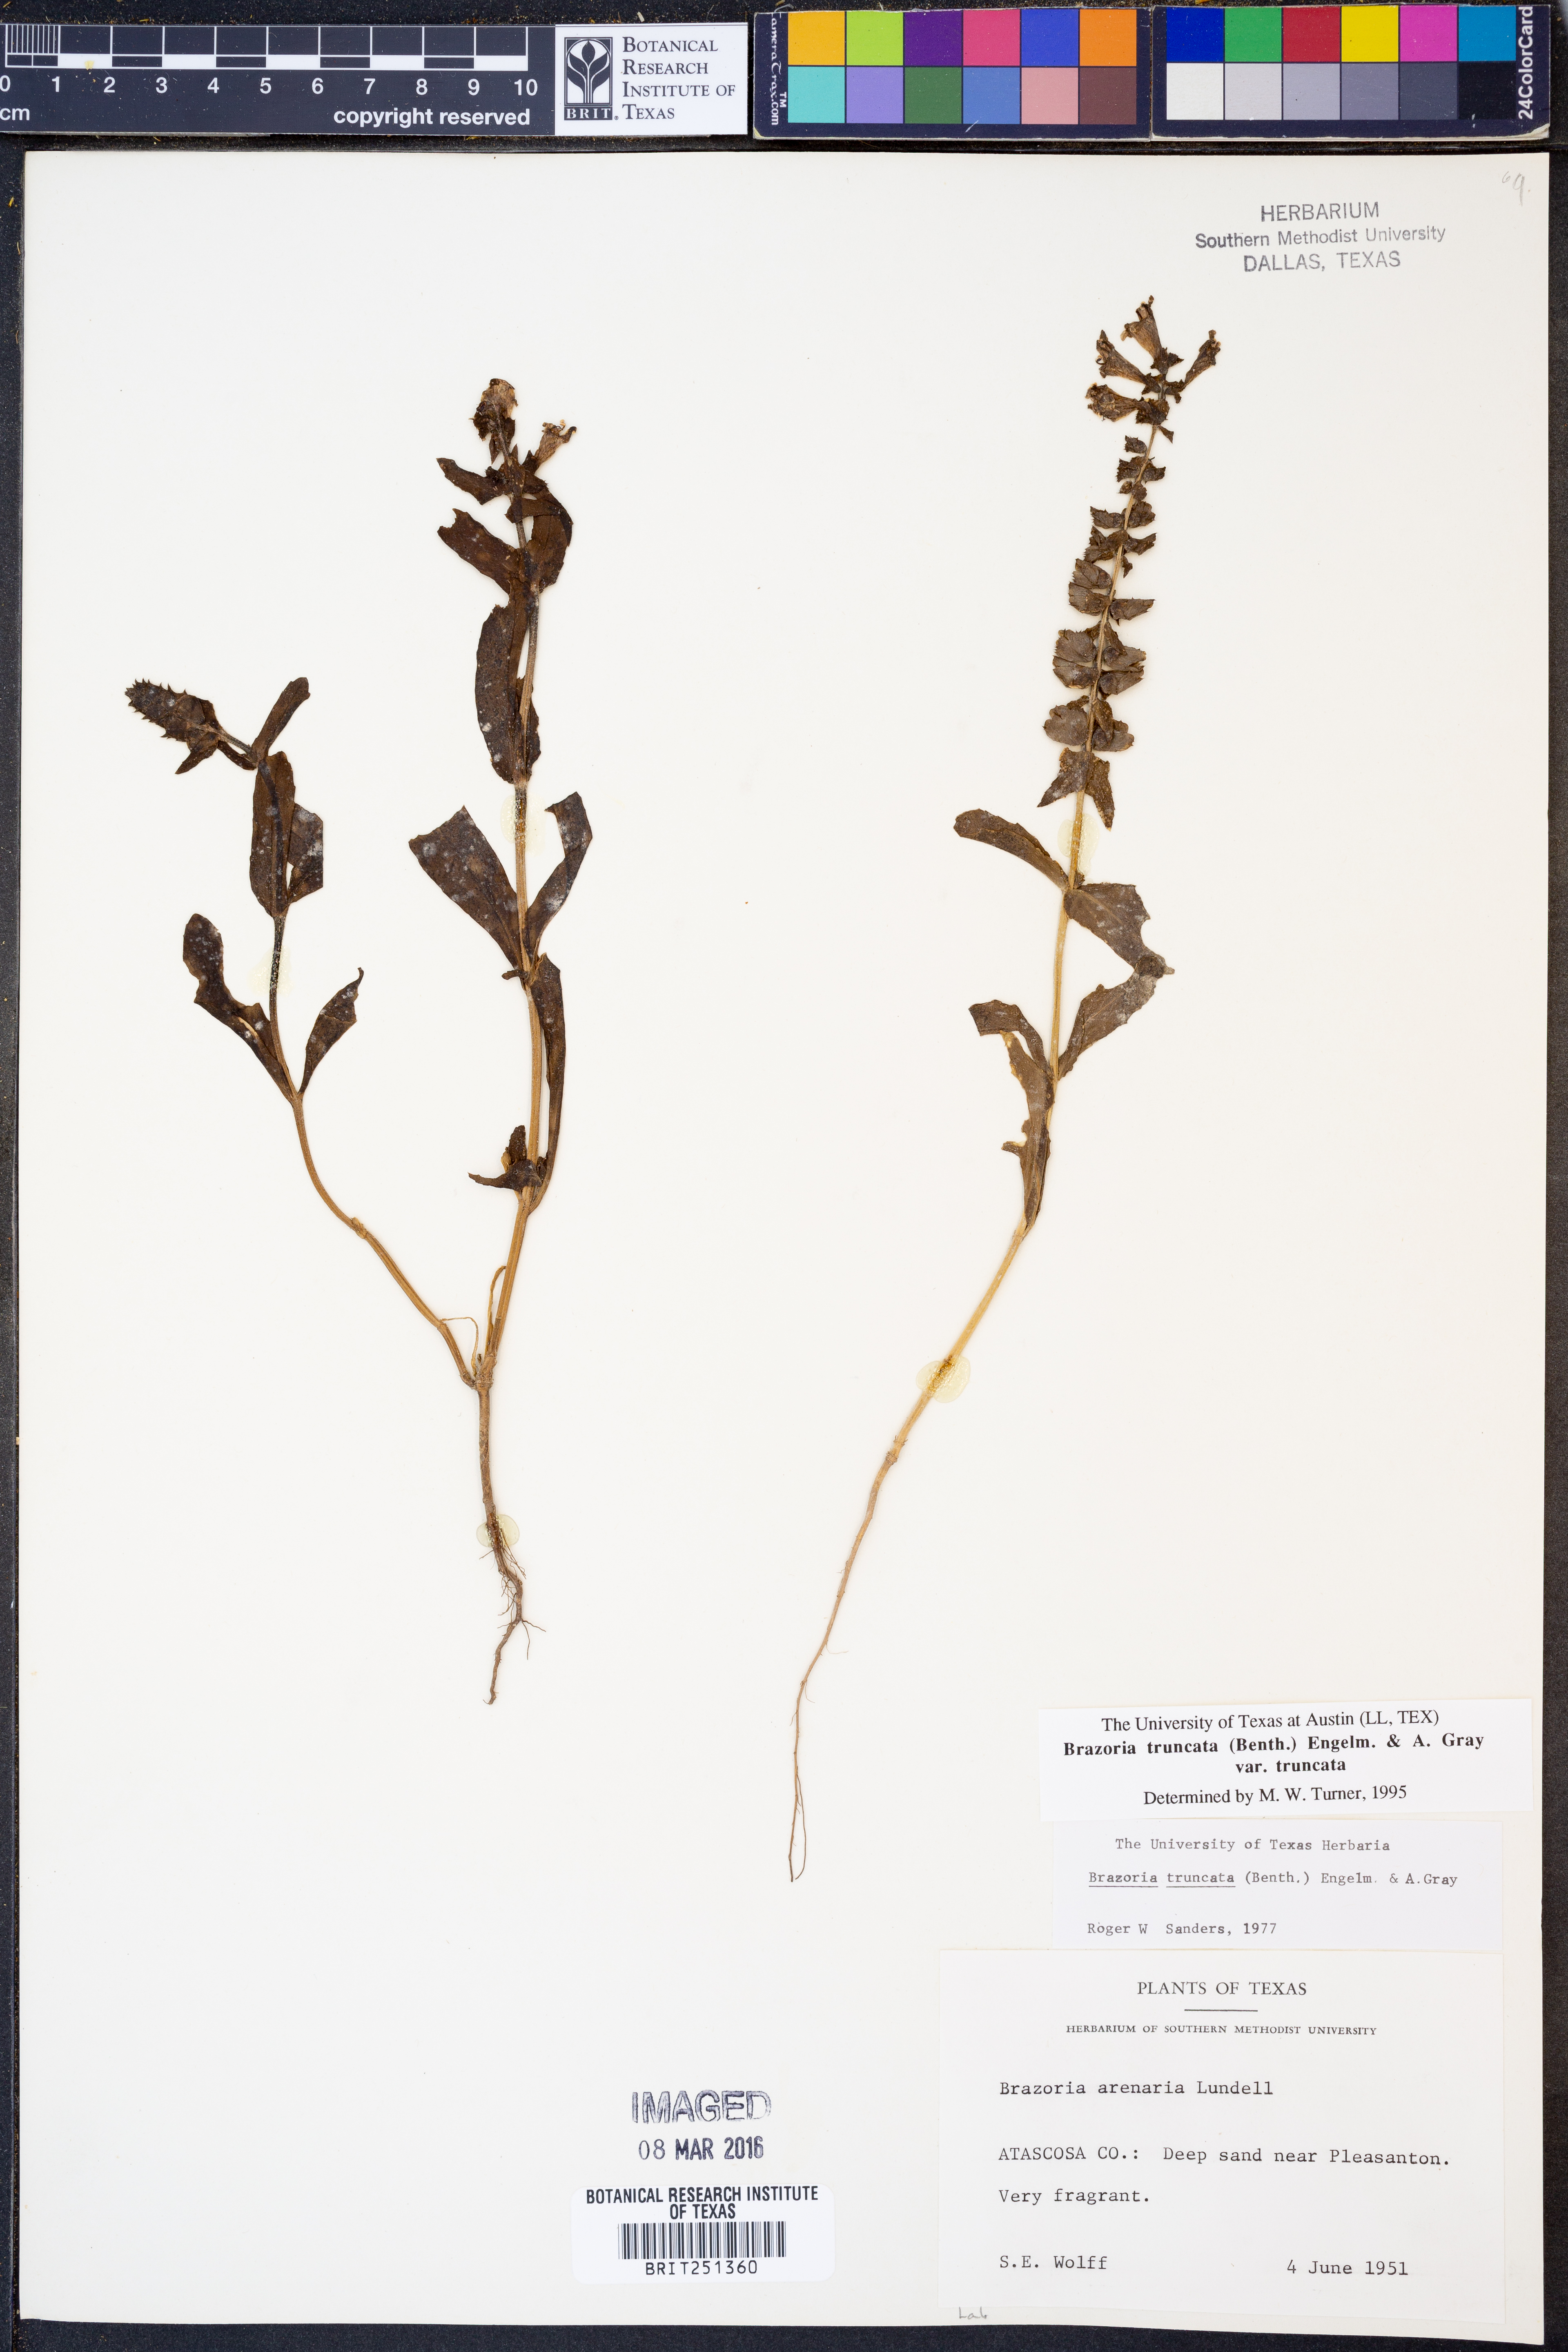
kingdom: Plantae
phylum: Tracheophyta
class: Magnoliopsida
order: Lamiales
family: Lamiaceae
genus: Brazoria
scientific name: Brazoria truncata
